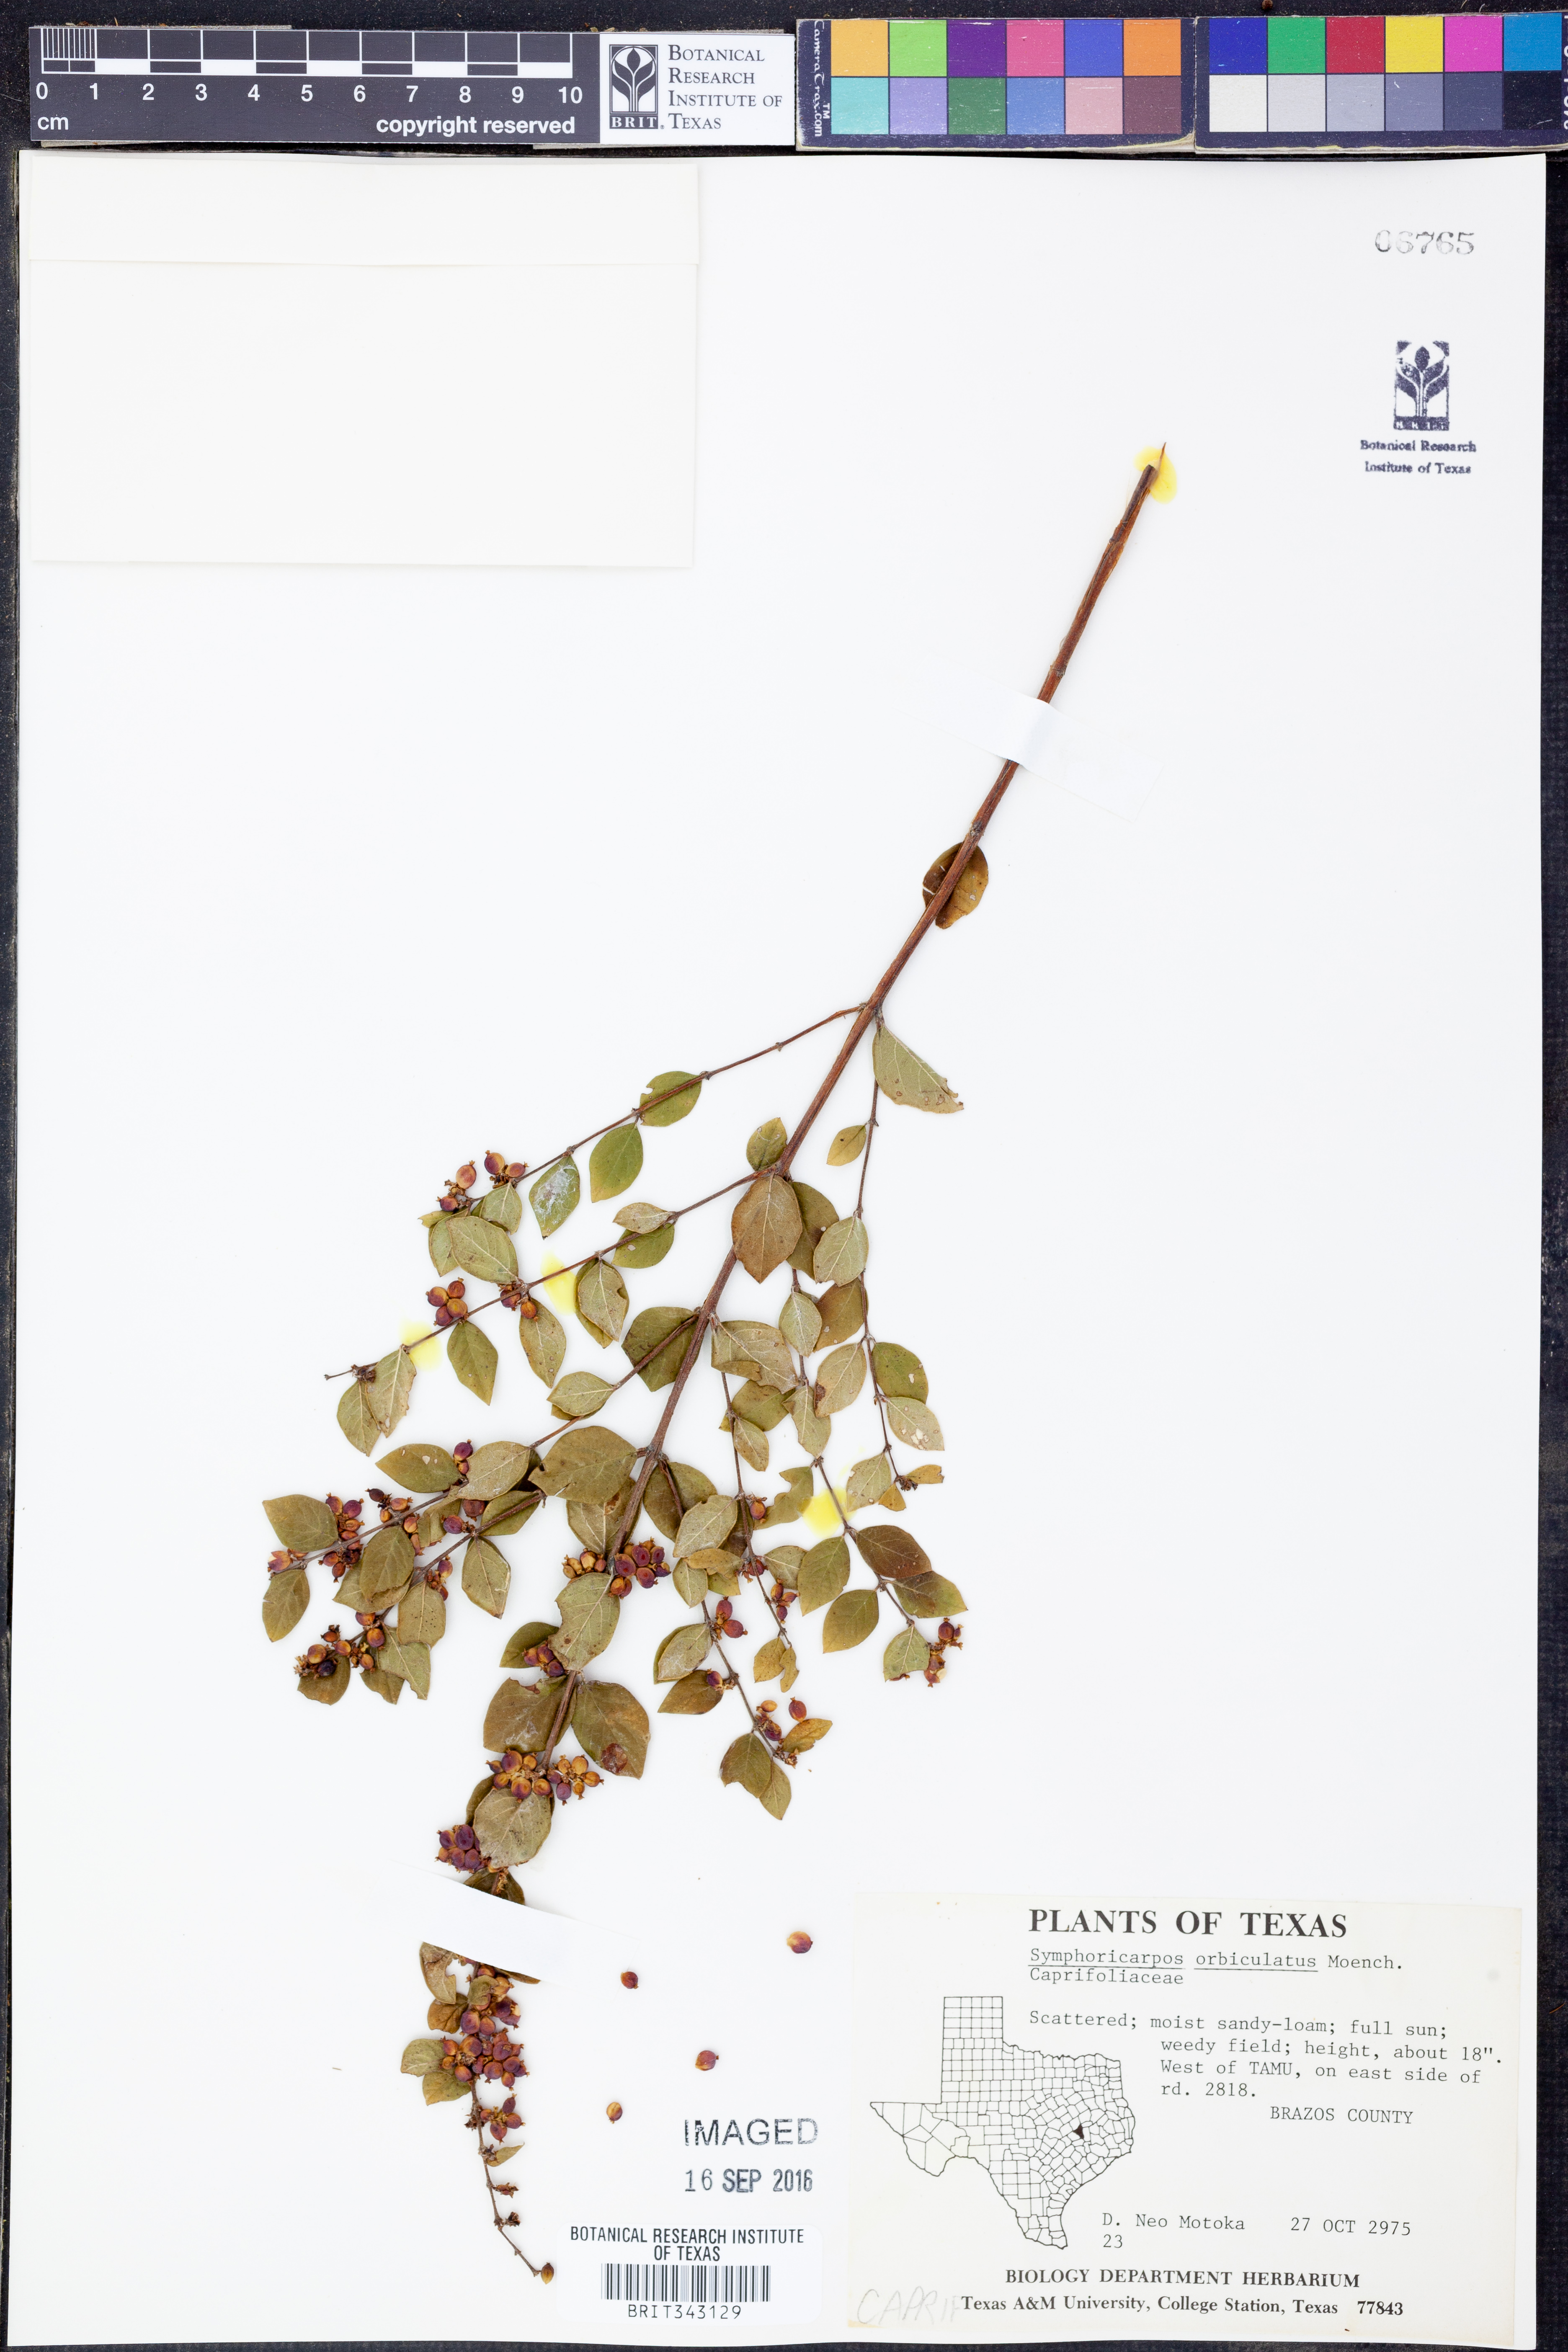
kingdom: Plantae
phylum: Tracheophyta
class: Magnoliopsida
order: Dipsacales
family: Caprifoliaceae
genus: Symphoricarpos
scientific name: Symphoricarpos orbiculatus
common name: Coralberry
